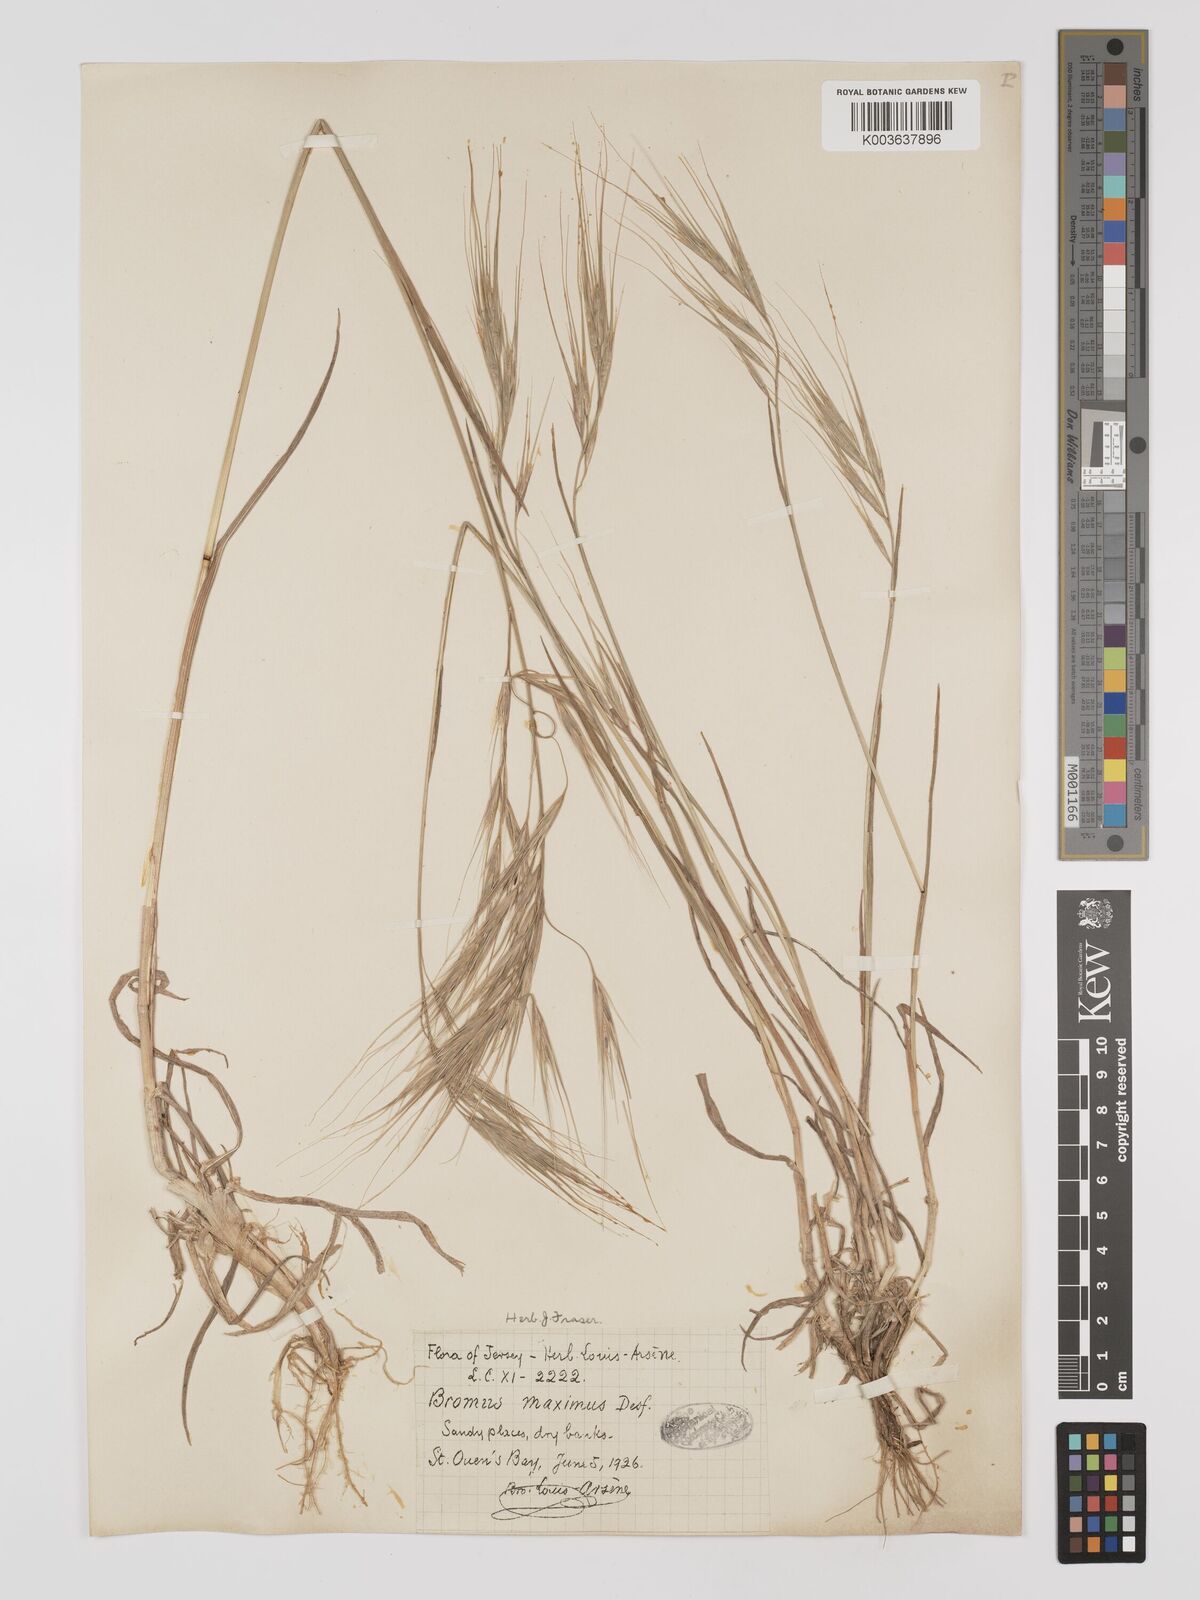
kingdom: Plantae
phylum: Tracheophyta
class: Liliopsida
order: Poales
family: Poaceae
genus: Bromus
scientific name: Bromus
